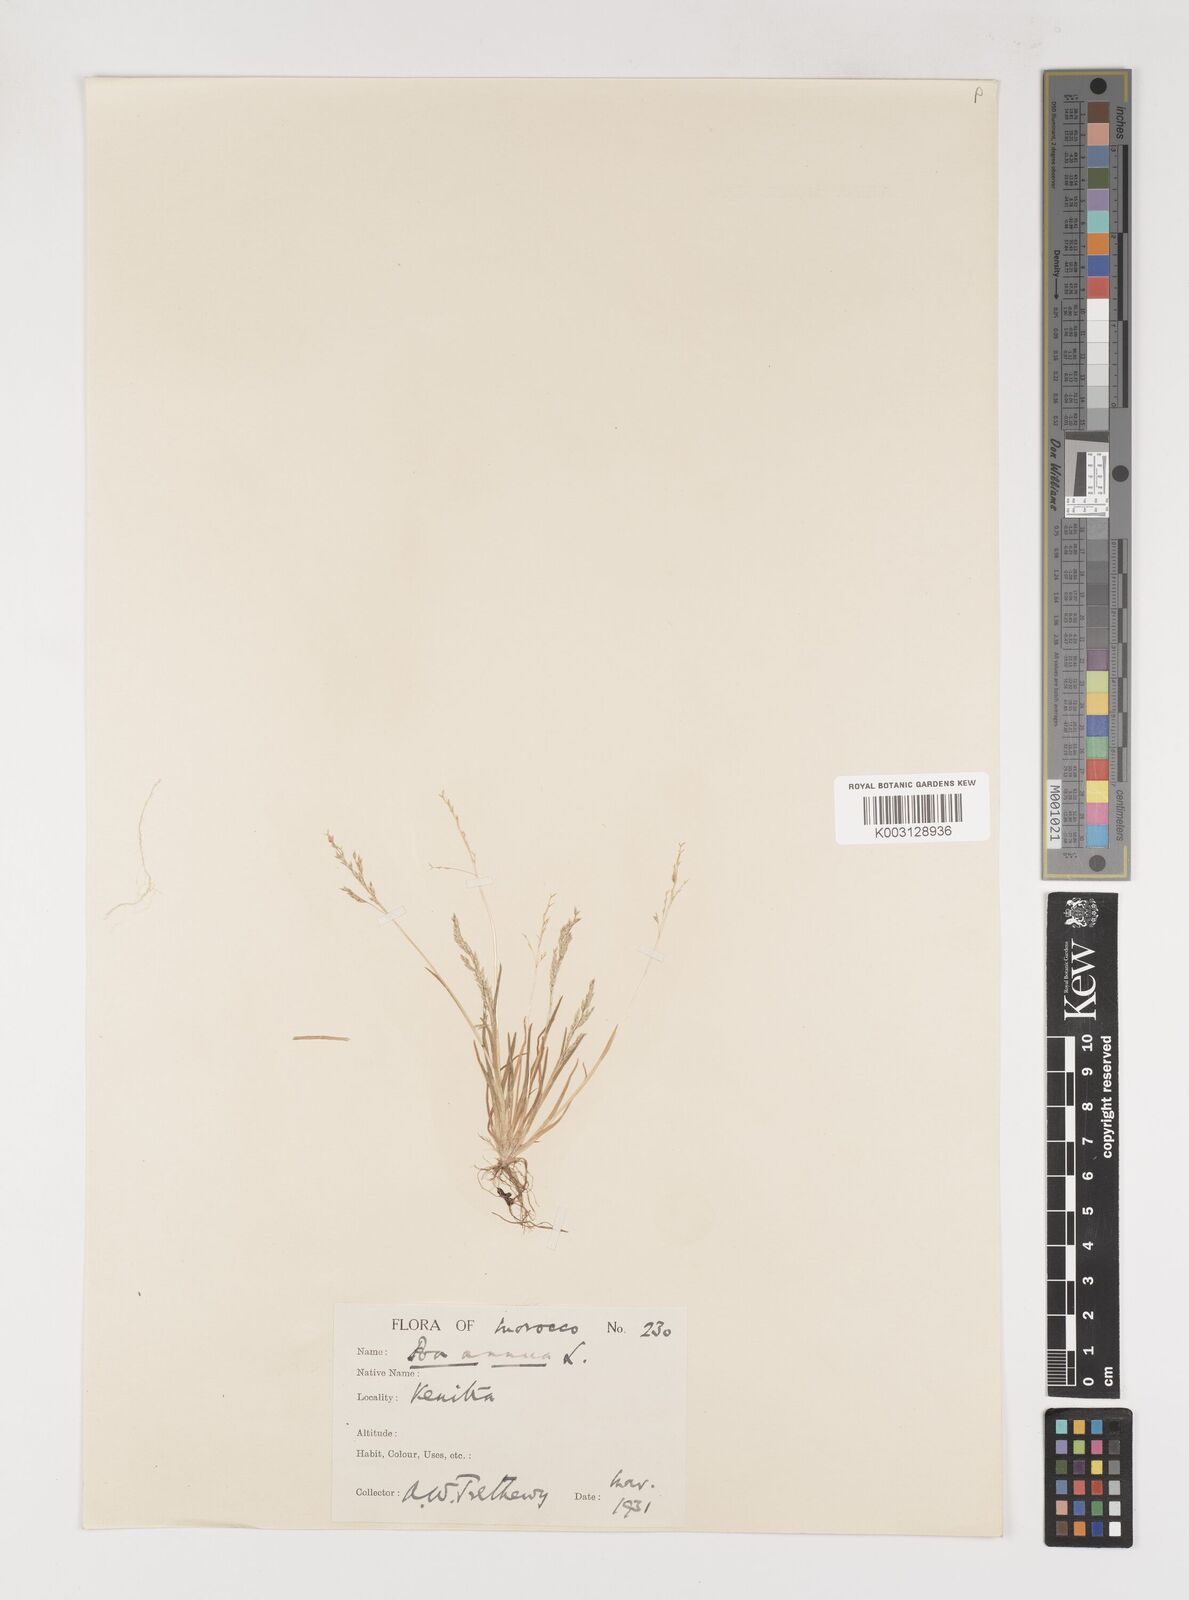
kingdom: Plantae
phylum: Tracheophyta
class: Liliopsida
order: Poales
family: Poaceae
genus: Poa
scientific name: Poa infirma
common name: Weak bluegrass
